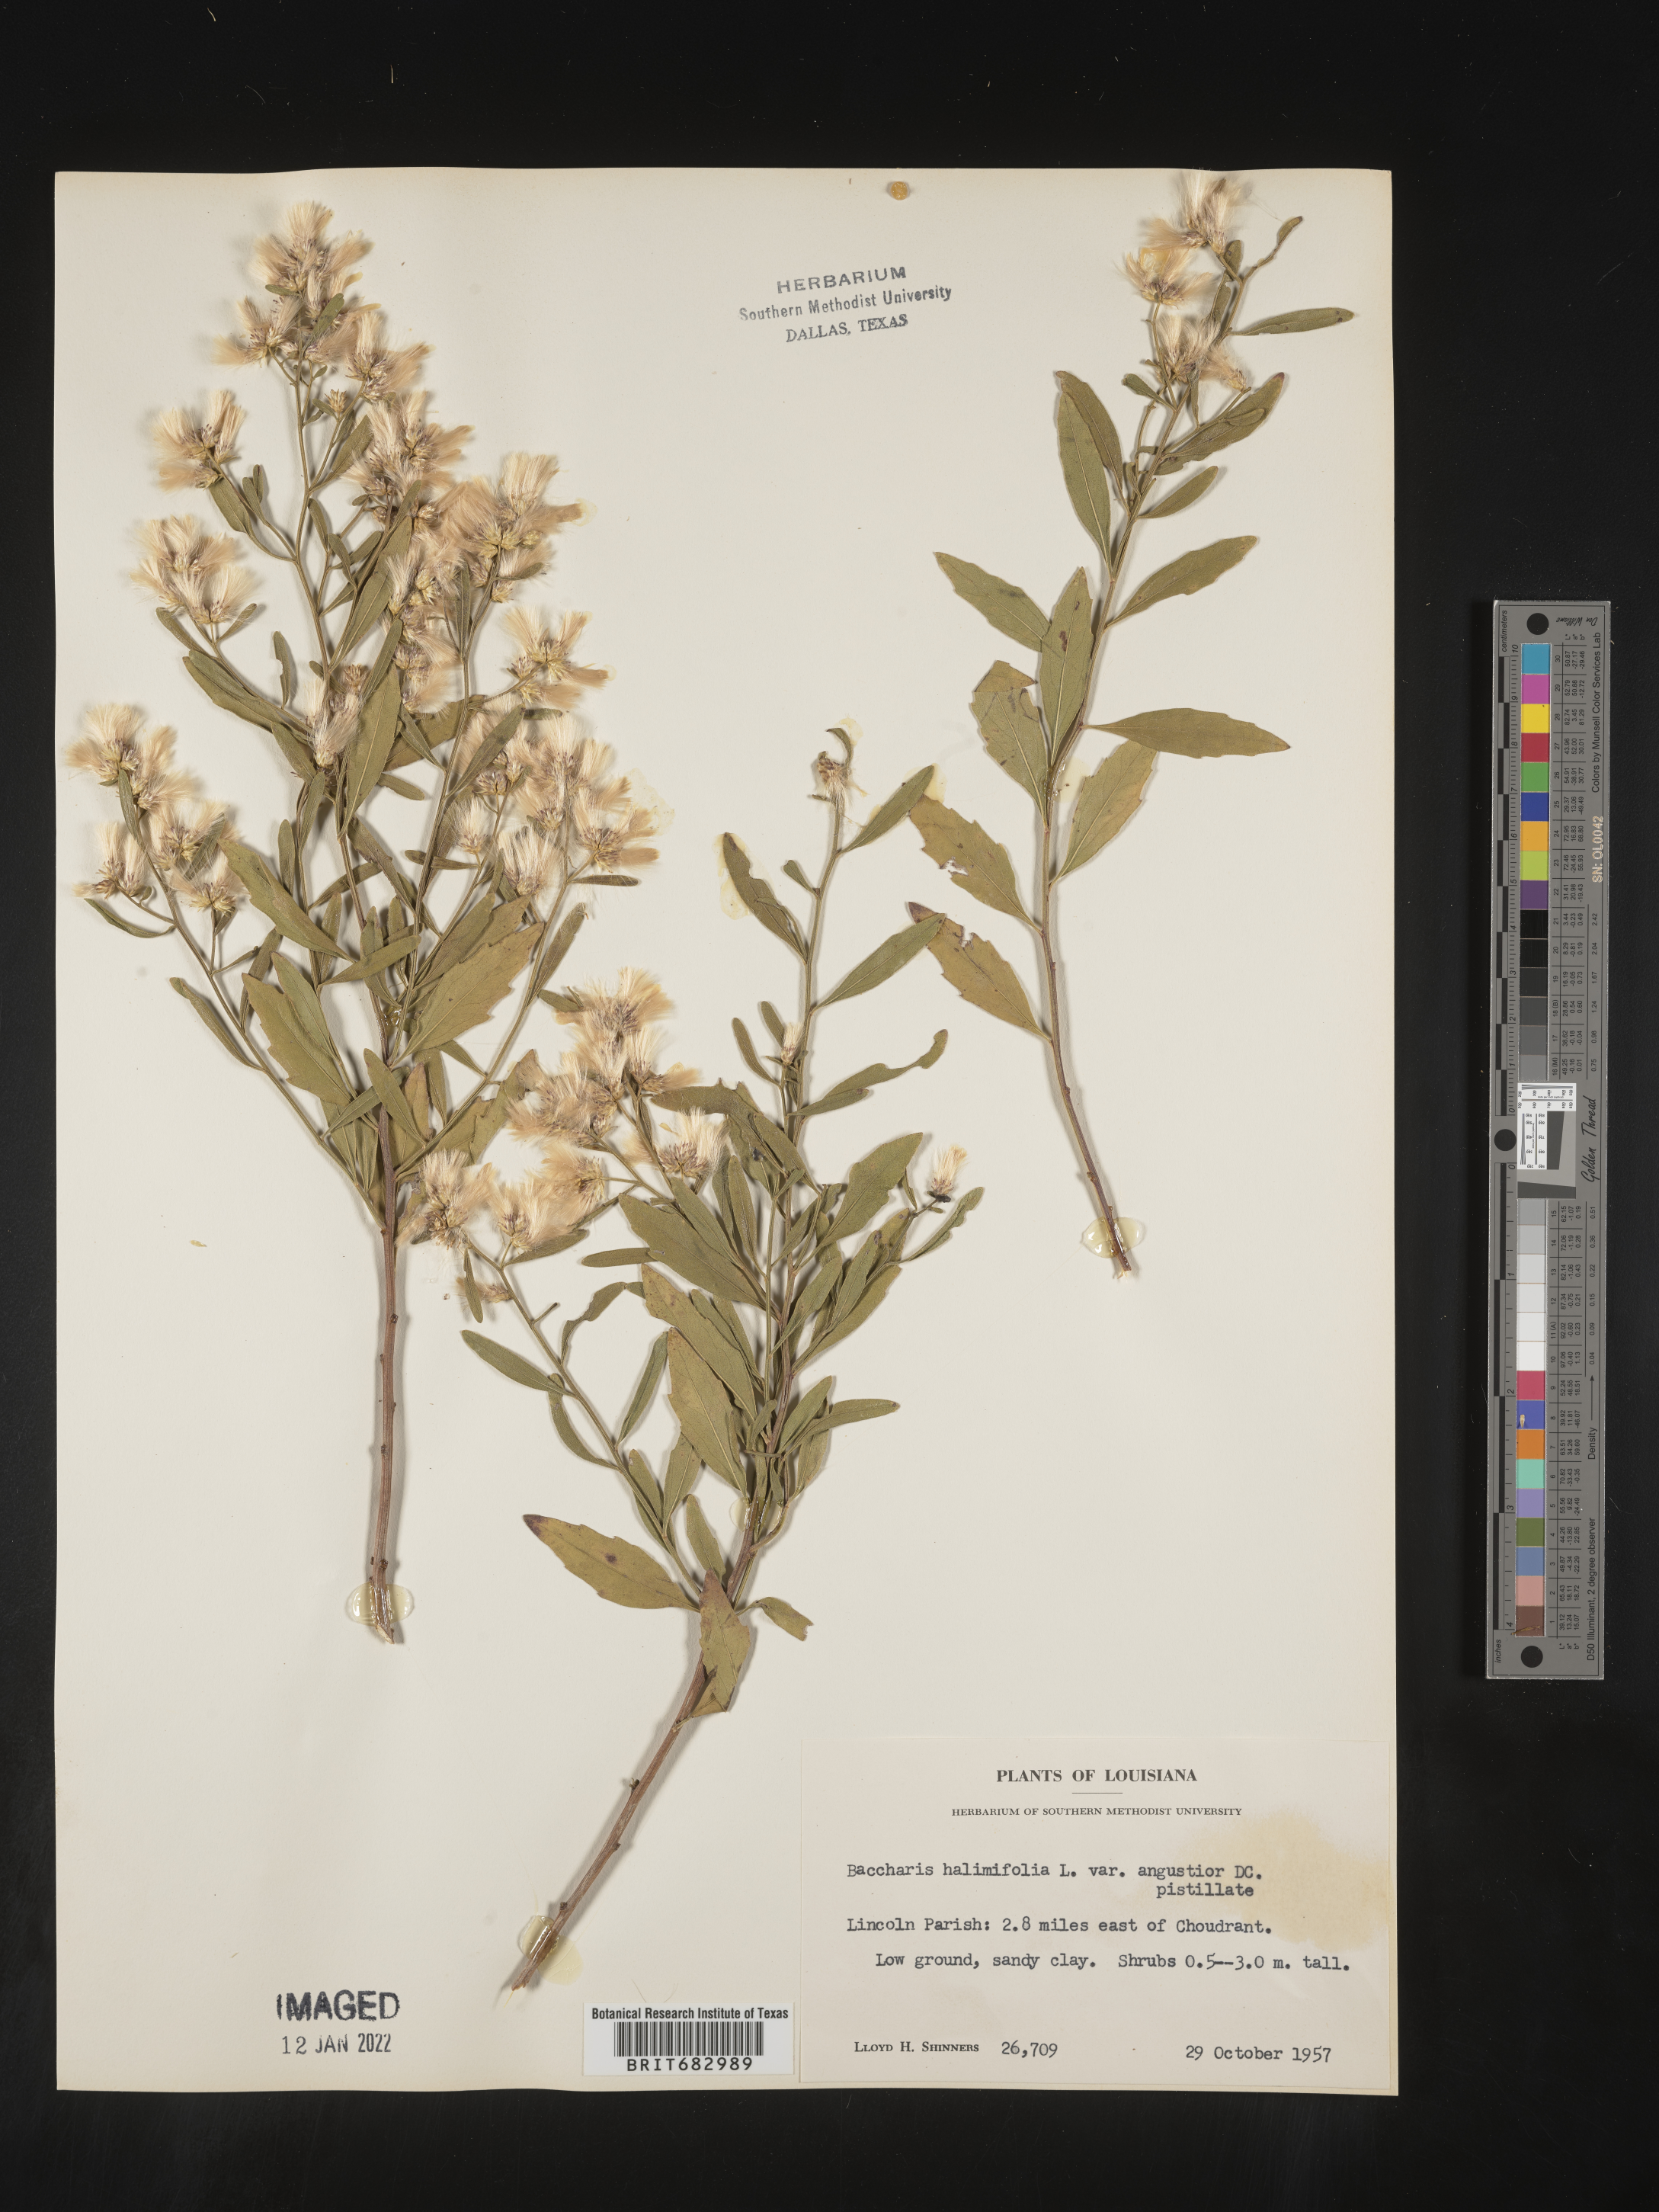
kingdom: Plantae
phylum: Tracheophyta
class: Magnoliopsida
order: Asterales
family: Asteraceae
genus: Nidorella
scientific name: Nidorella ivifolia
